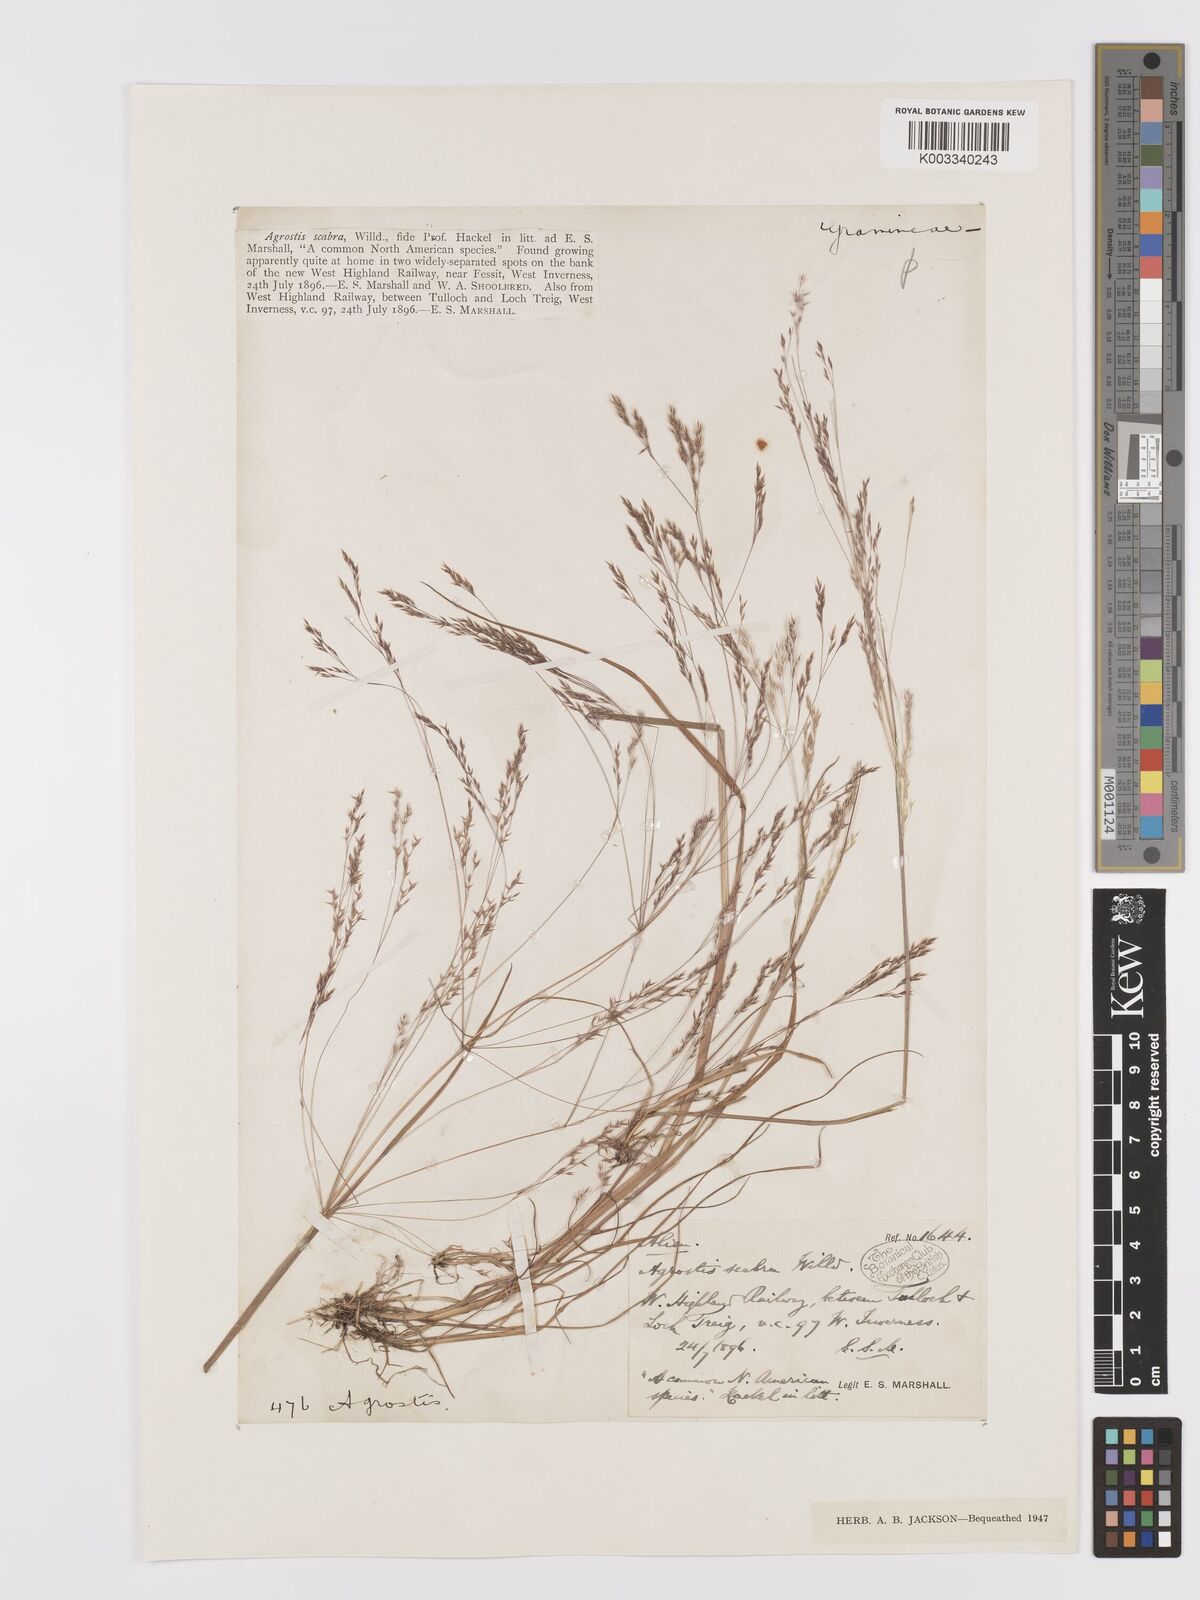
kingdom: Plantae
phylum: Tracheophyta
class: Liliopsida
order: Poales
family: Poaceae
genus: Agrostis
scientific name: Agrostis scabra
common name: Rough bent
